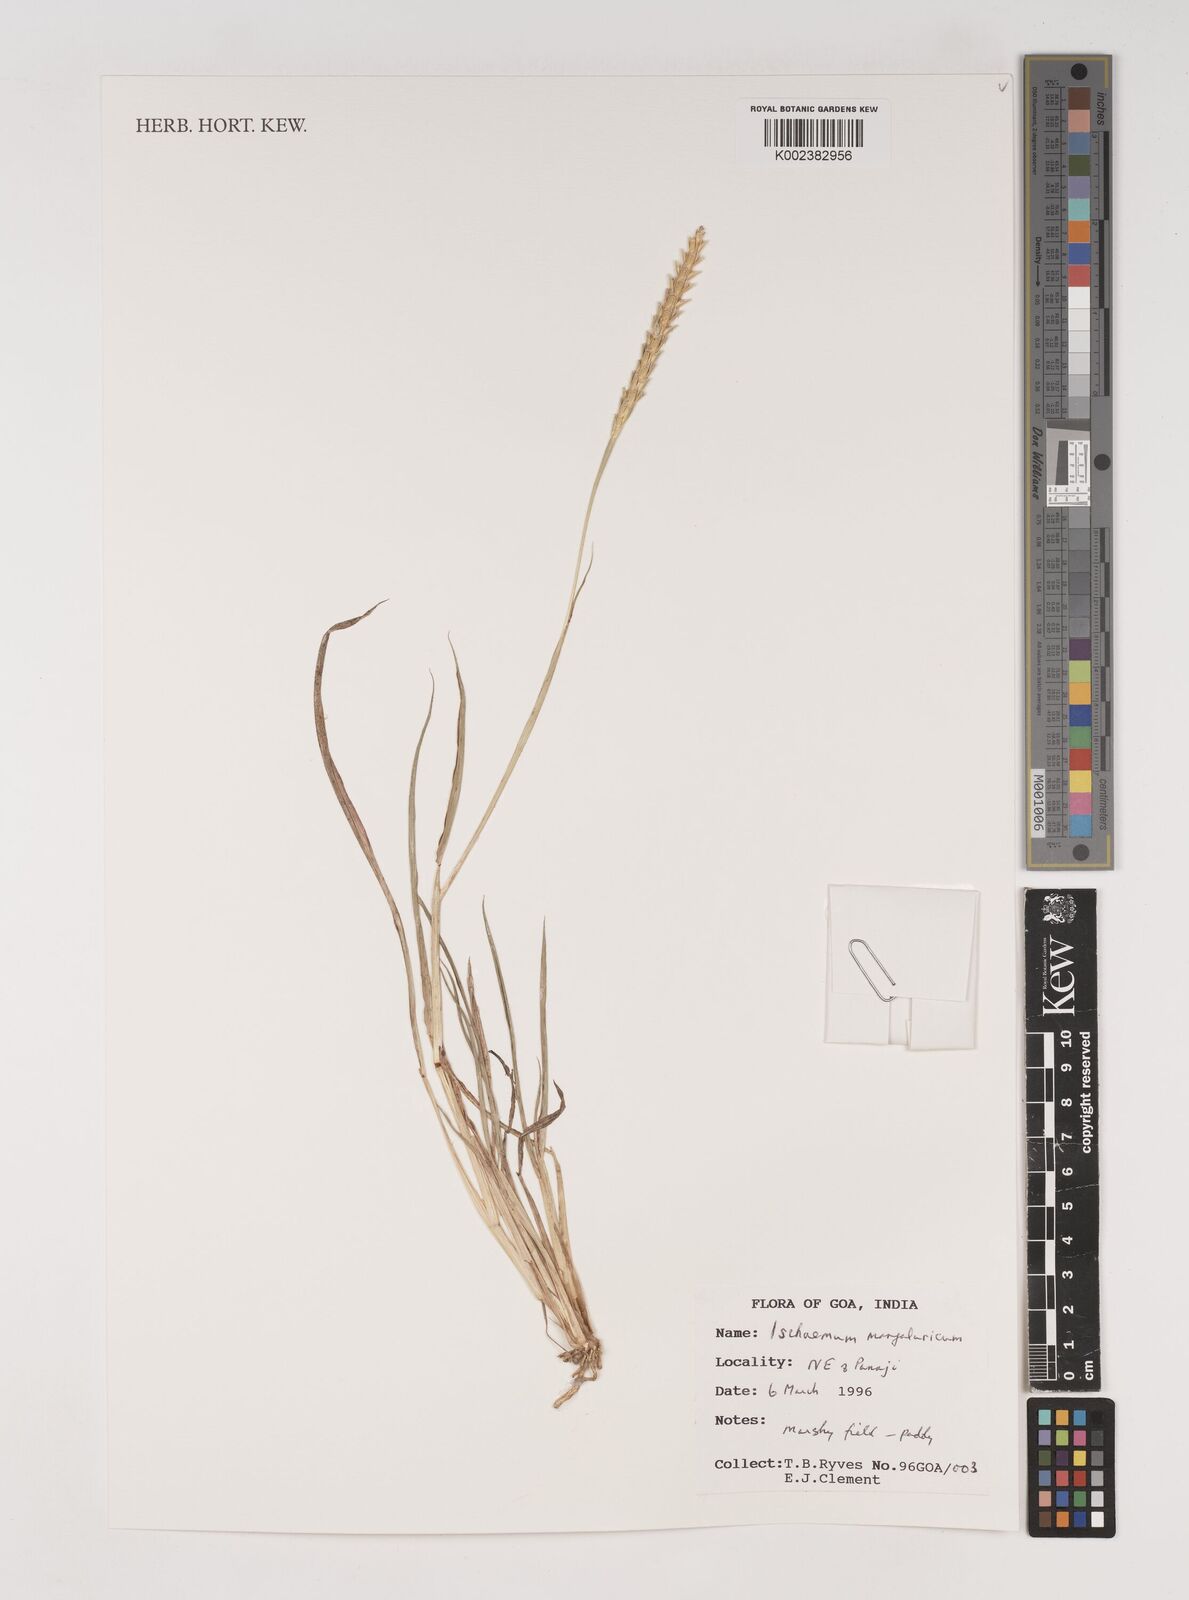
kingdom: Plantae
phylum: Tracheophyta
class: Liliopsida
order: Poales
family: Poaceae
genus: Ischaemum
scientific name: Ischaemum barbatum
